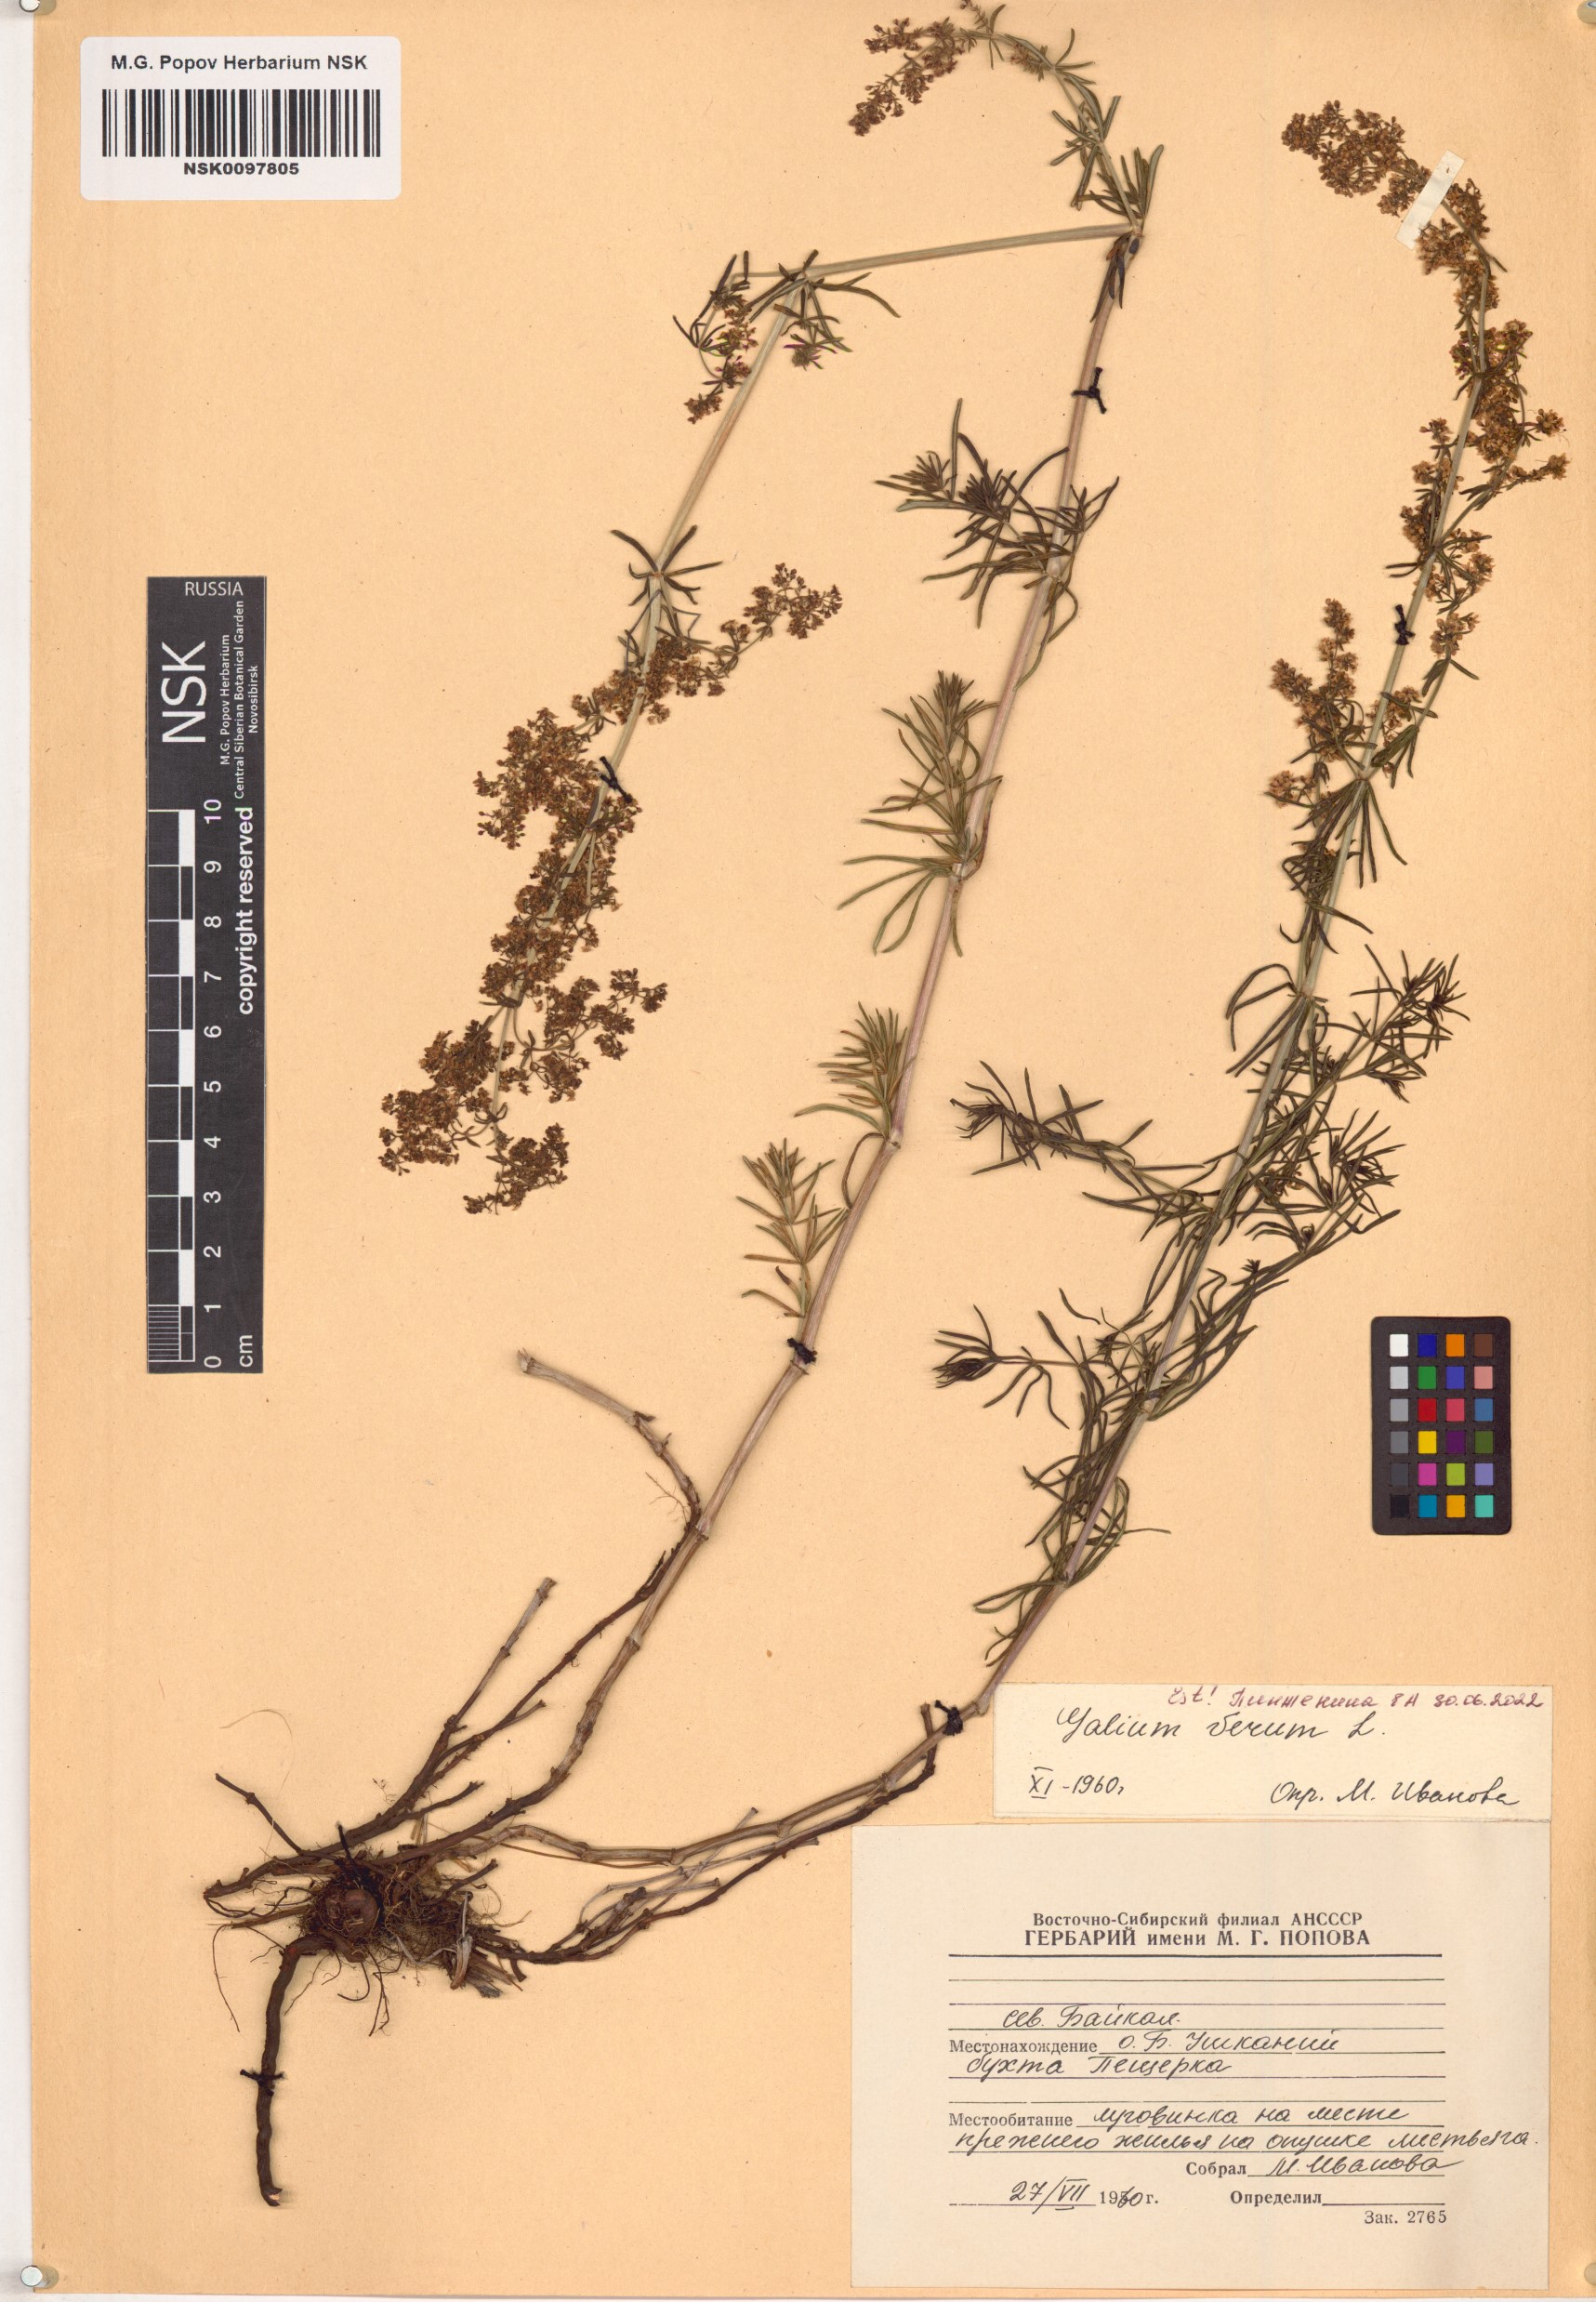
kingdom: Plantae
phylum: Tracheophyta
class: Magnoliopsida
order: Gentianales
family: Rubiaceae
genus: Galium
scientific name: Galium verum
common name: Lady's bedstraw
